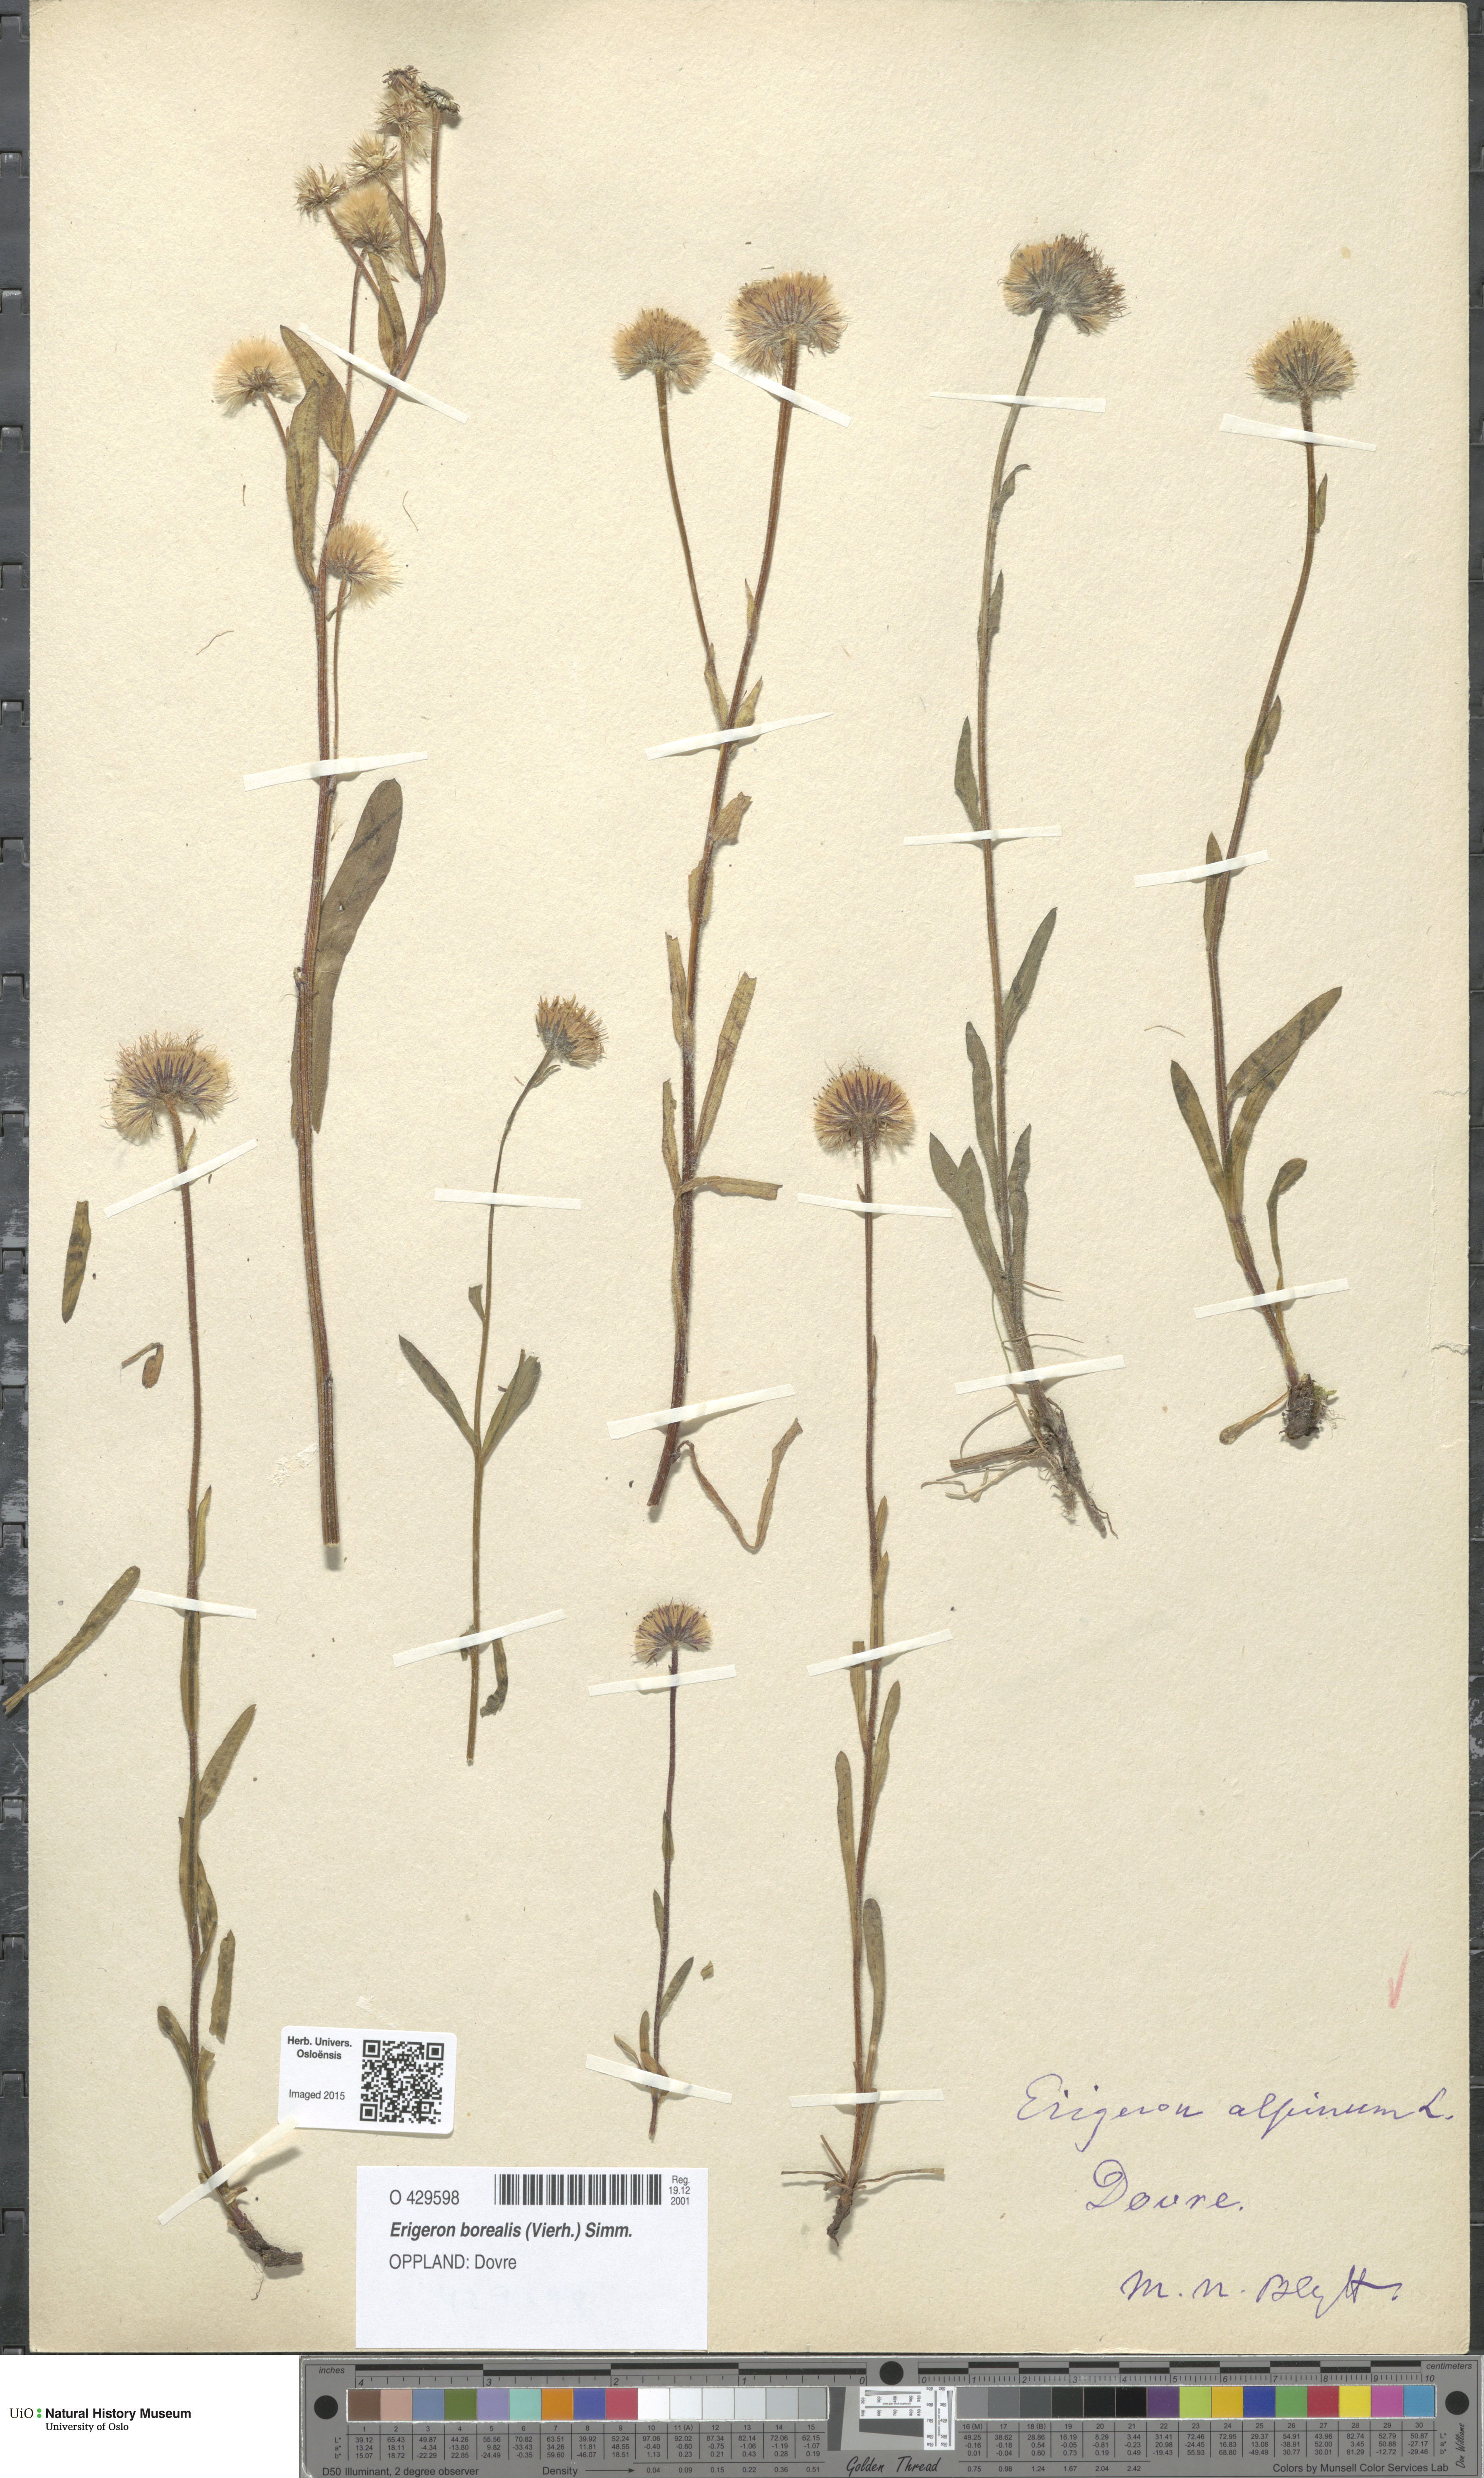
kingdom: Plantae
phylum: Tracheophyta
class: Magnoliopsida
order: Asterales
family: Asteraceae
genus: Erigeron
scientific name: Erigeron borealis
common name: Alpine fleabane
